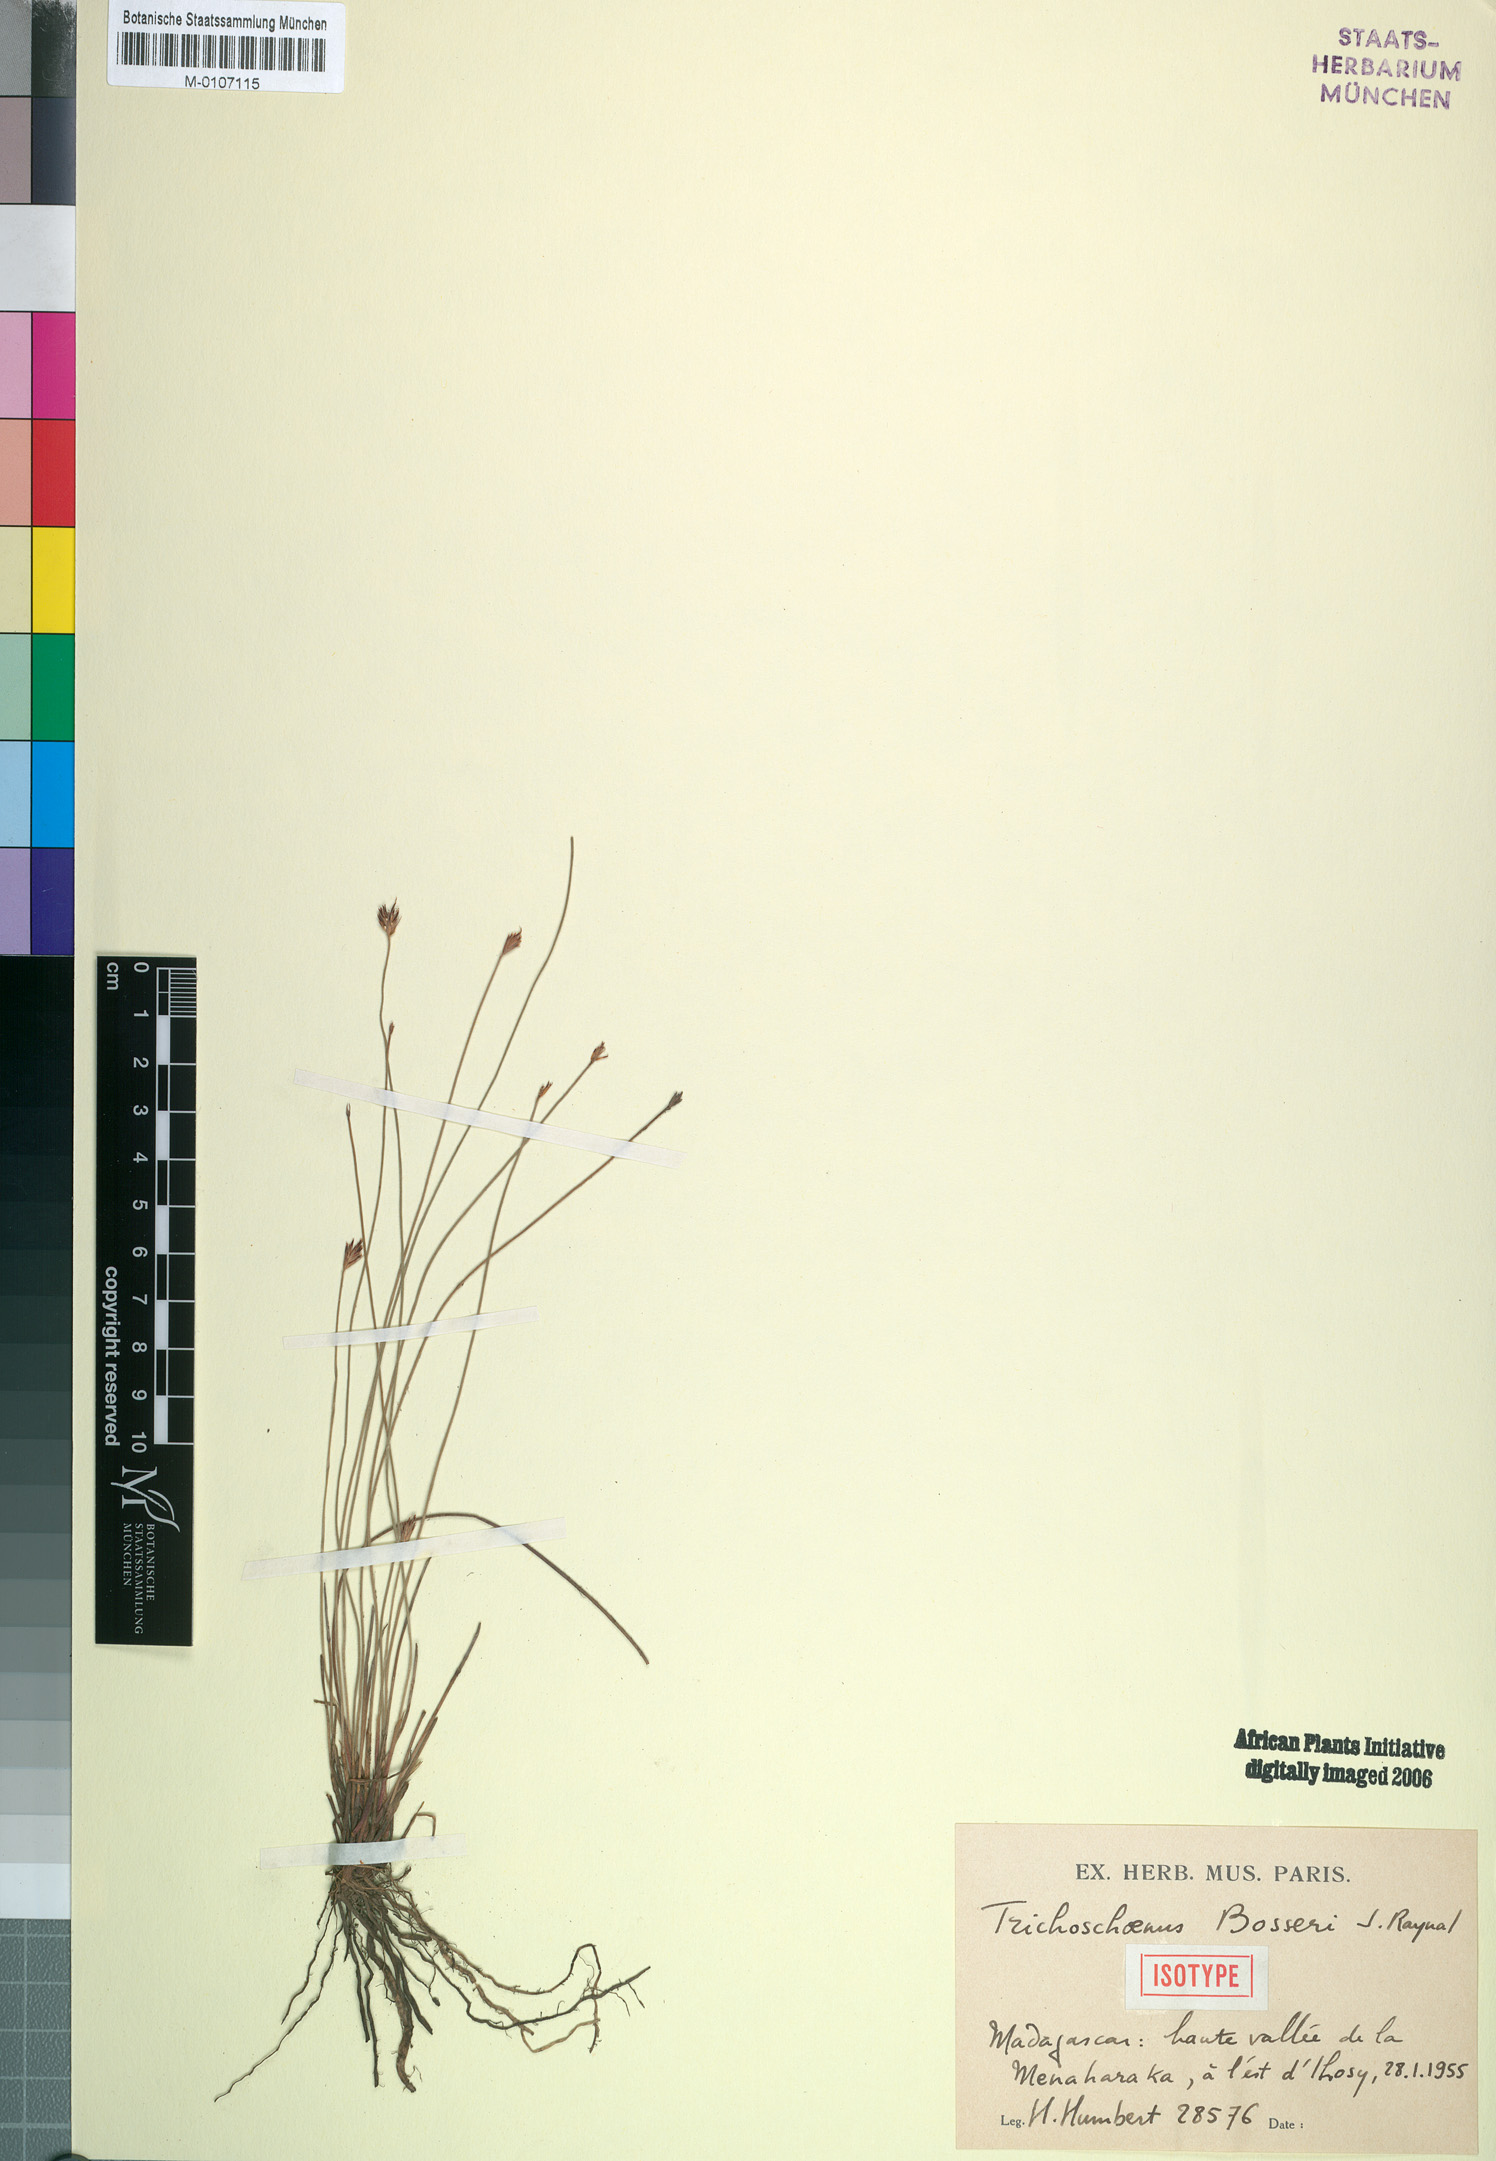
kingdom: Plantae
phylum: Tracheophyta
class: Liliopsida
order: Poales
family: Cyperaceae
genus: Trichoschoenus
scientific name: Trichoschoenus bosseri
